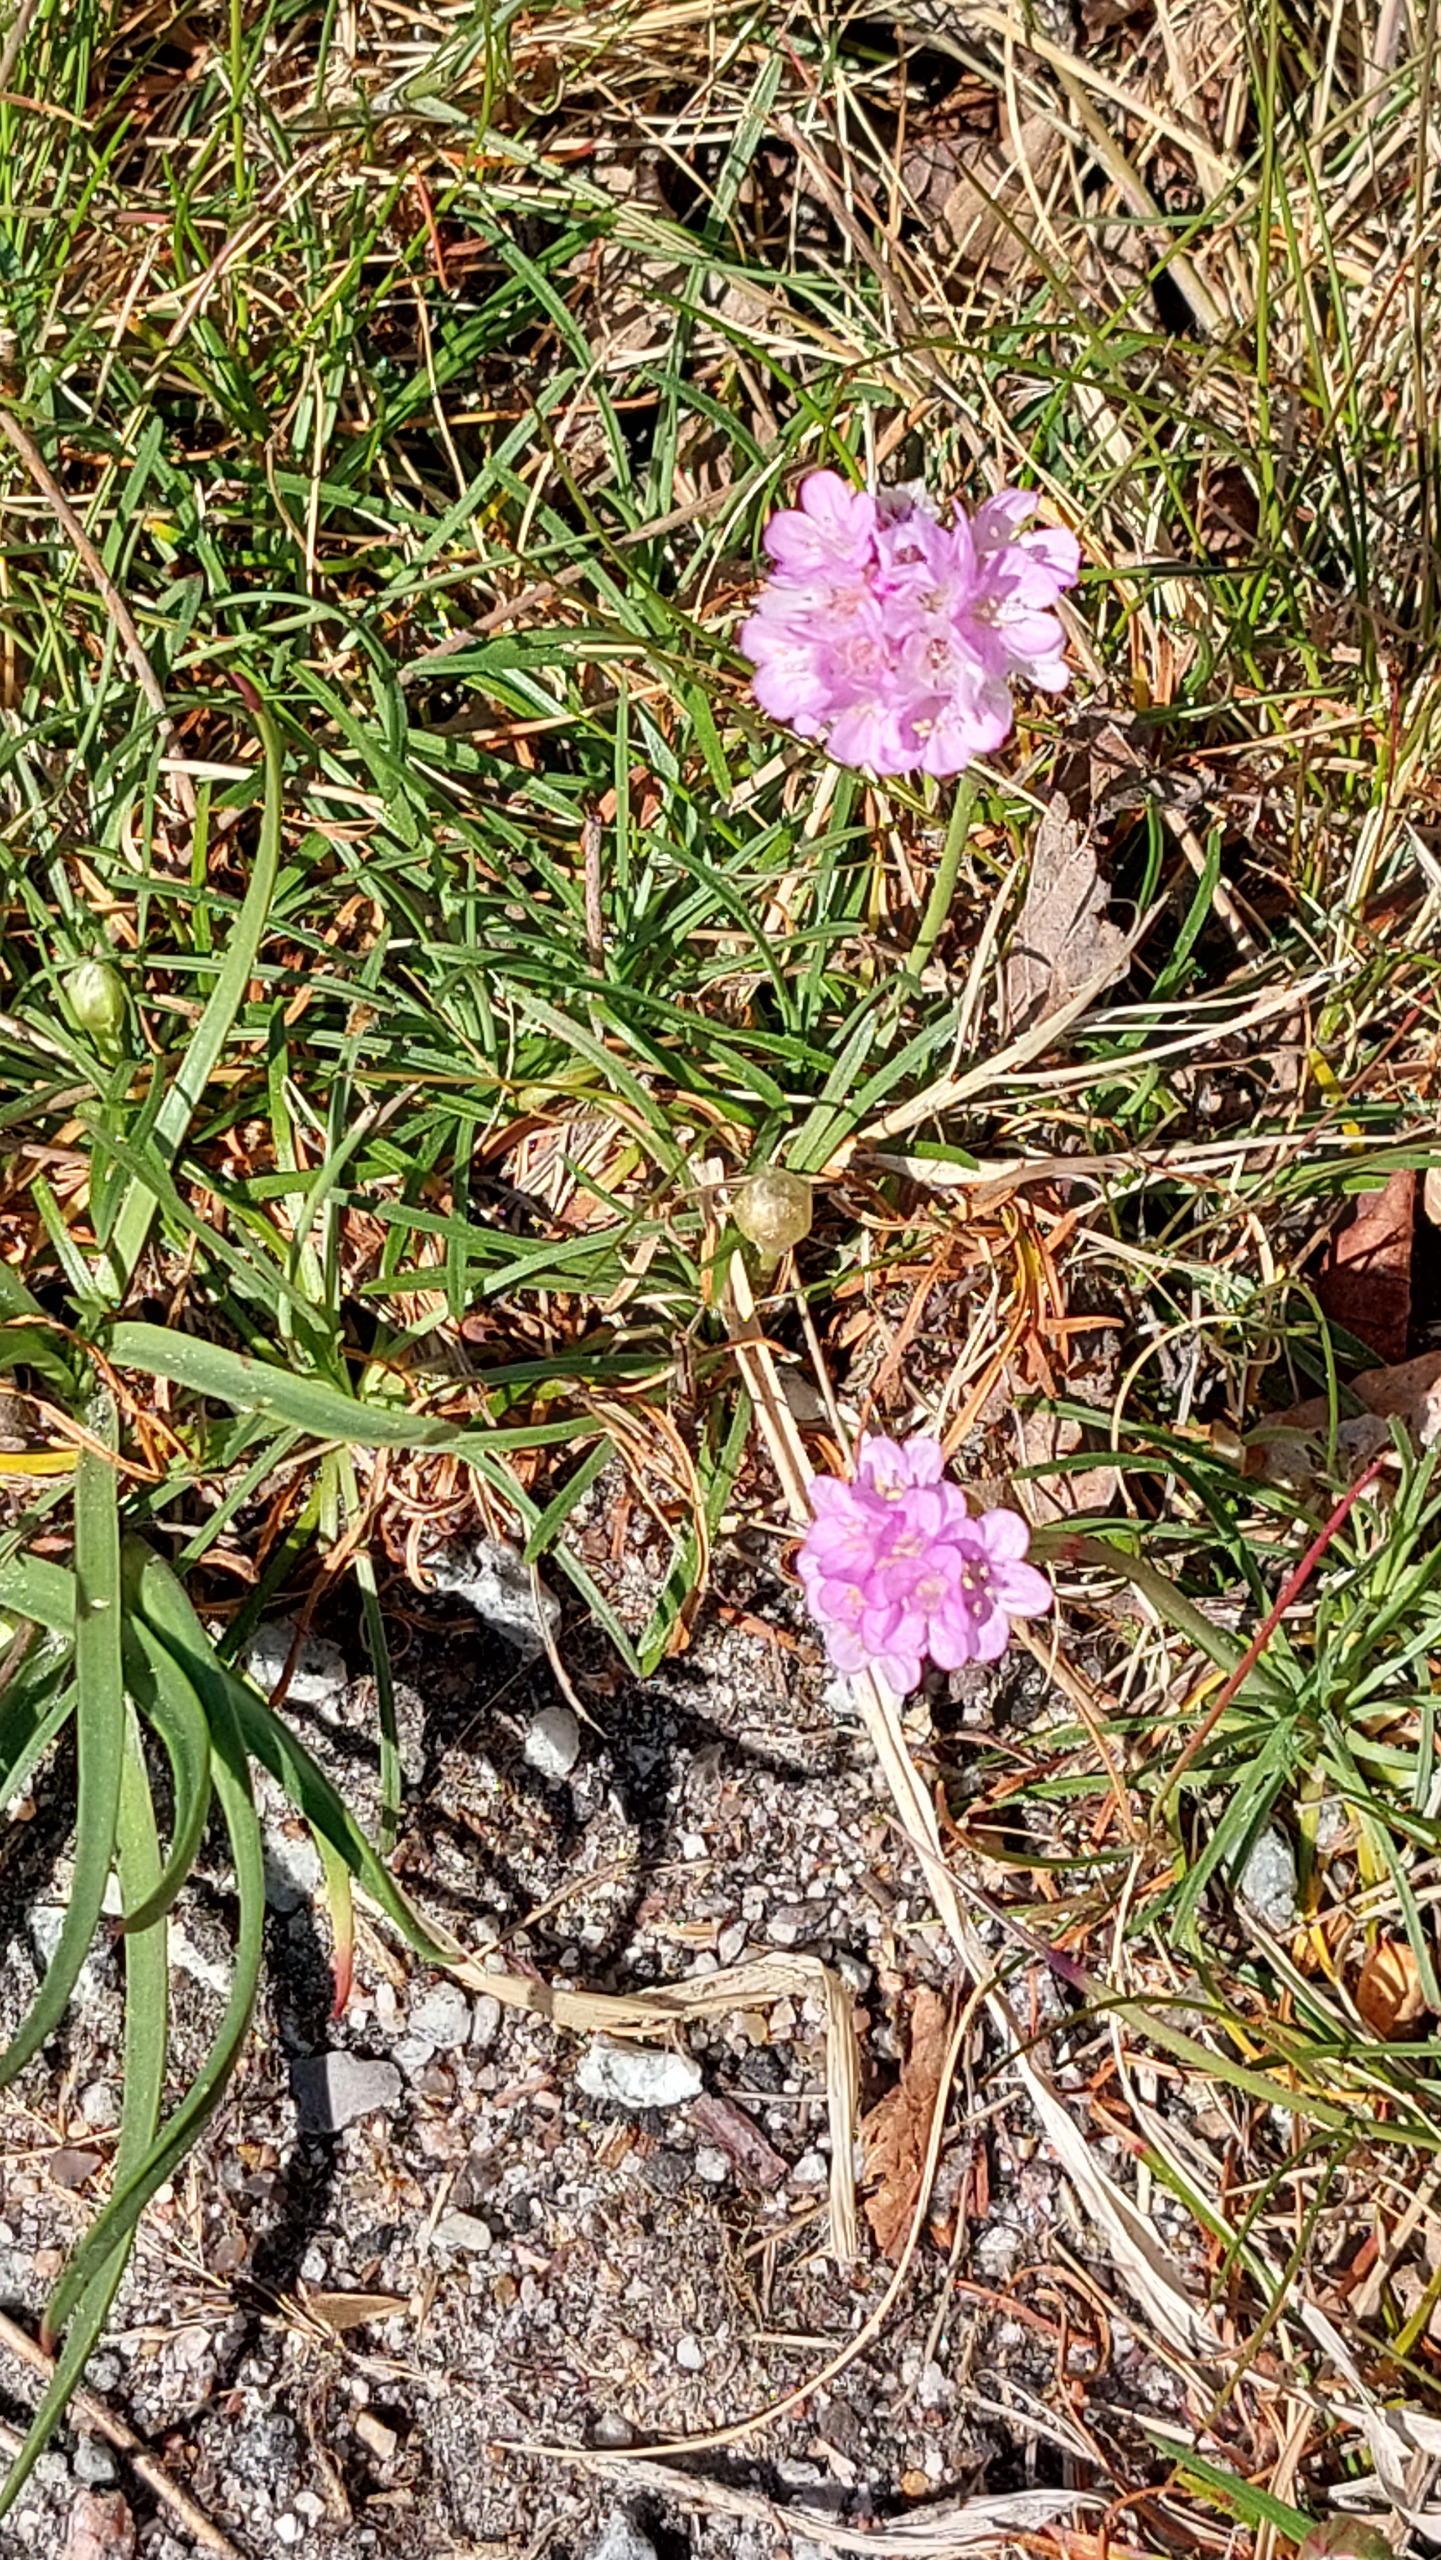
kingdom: Plantae
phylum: Tracheophyta
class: Magnoliopsida
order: Caryophyllales
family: Plumbaginaceae
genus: Armeria
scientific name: Armeria maritima
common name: Engelskgræs
